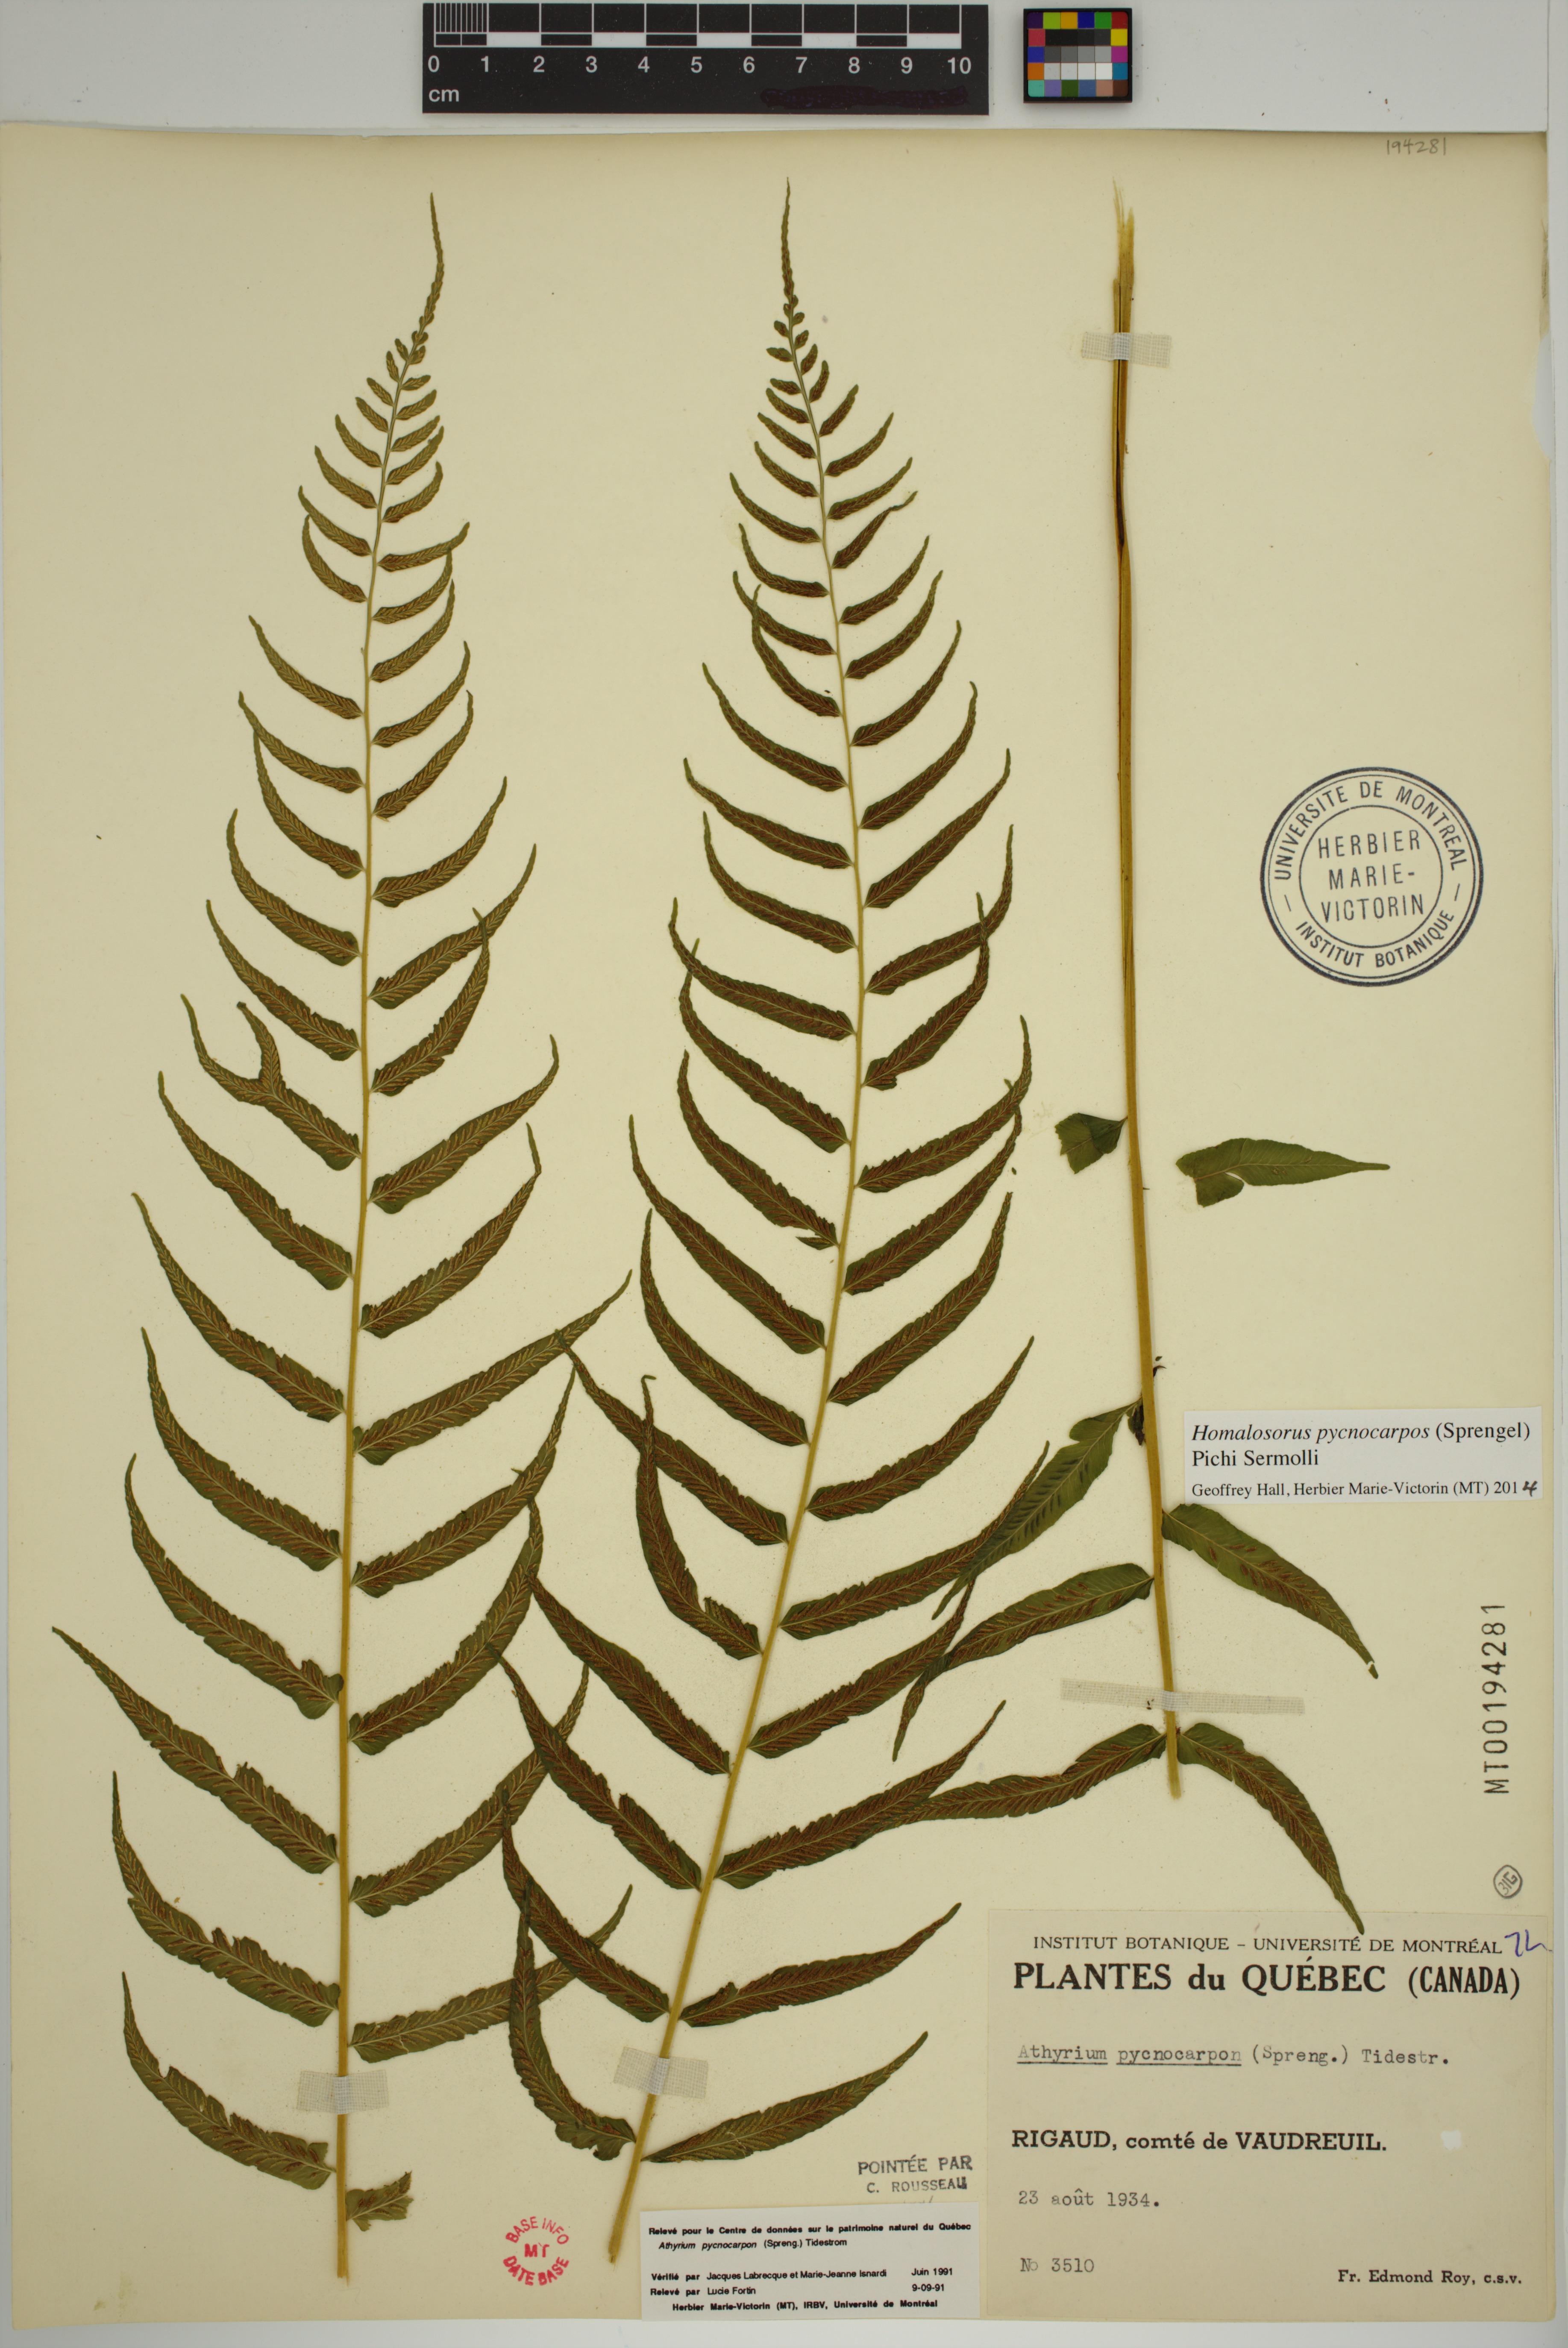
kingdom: Plantae
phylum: Tracheophyta
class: Polypodiopsida
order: Polypodiales
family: Diplaziopsidaceae
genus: Homalosorus
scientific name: Homalosorus pycnocarpos
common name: Glade fern
